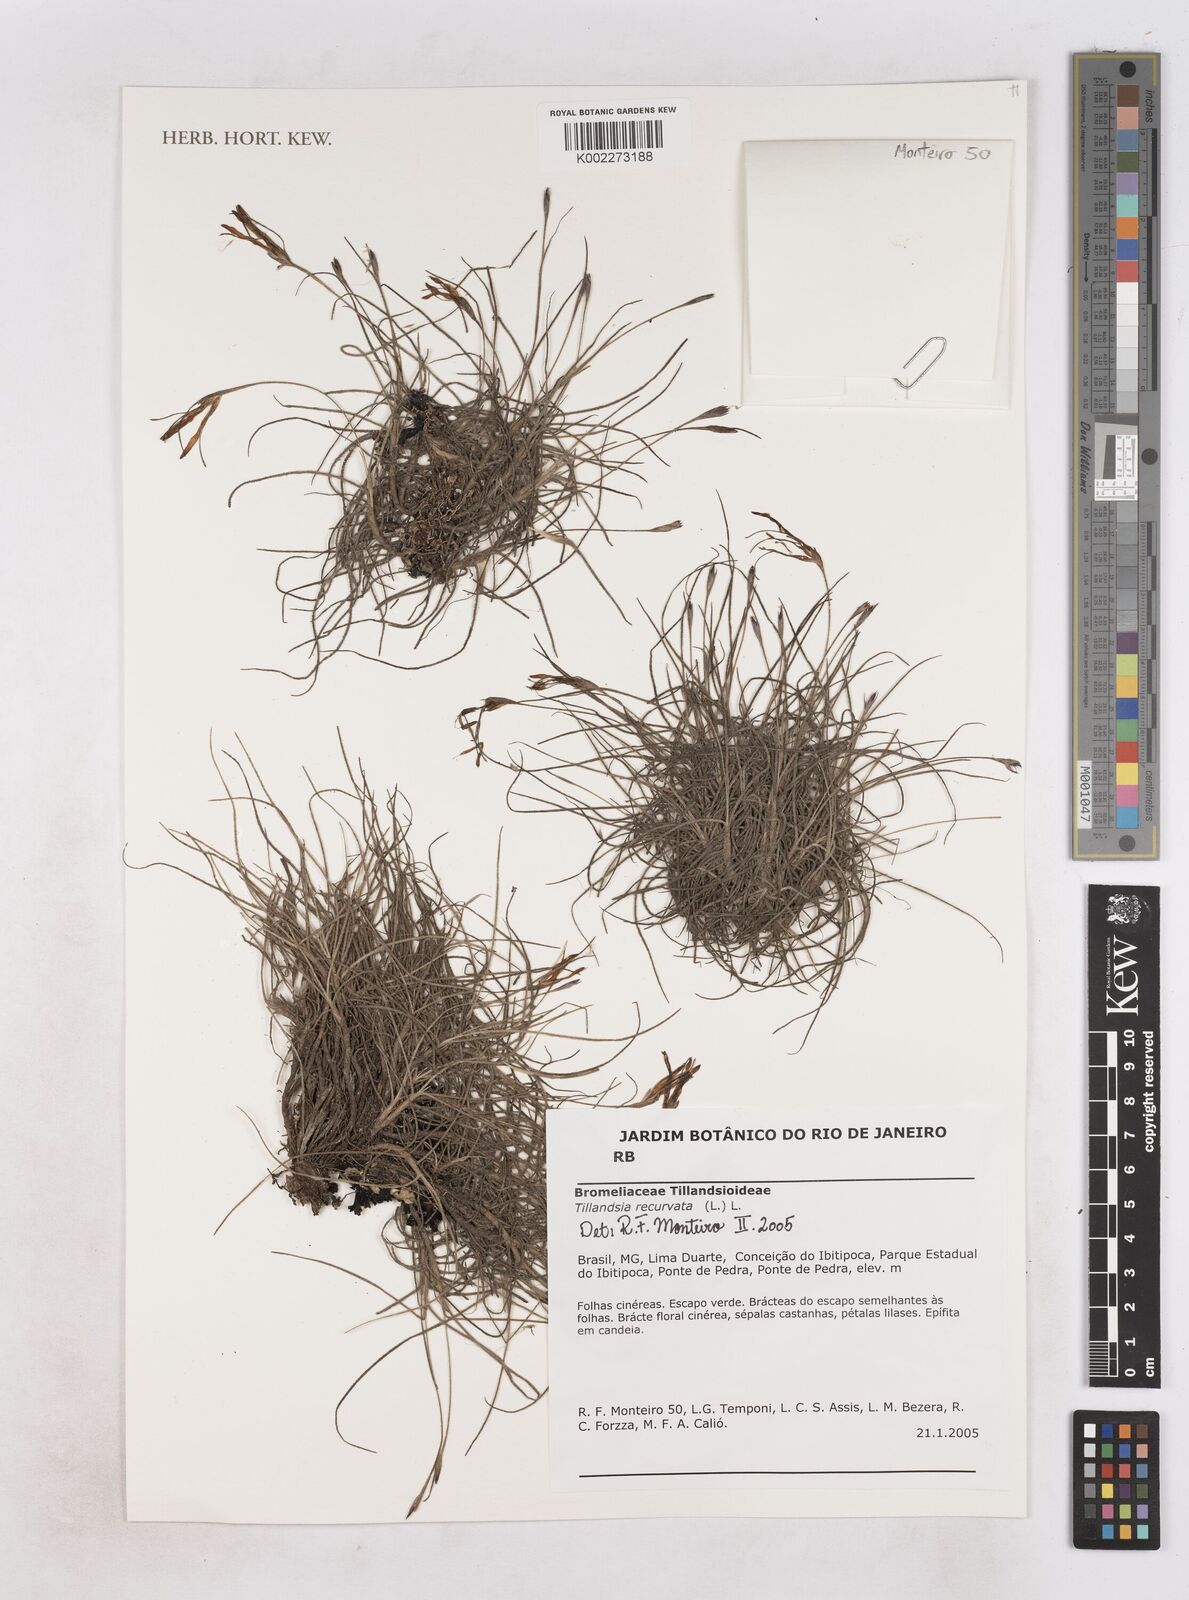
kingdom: Plantae
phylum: Tracheophyta
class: Liliopsida
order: Poales
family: Bromeliaceae
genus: Tillandsia
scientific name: Tillandsia recurvata
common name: Small ballmoss
